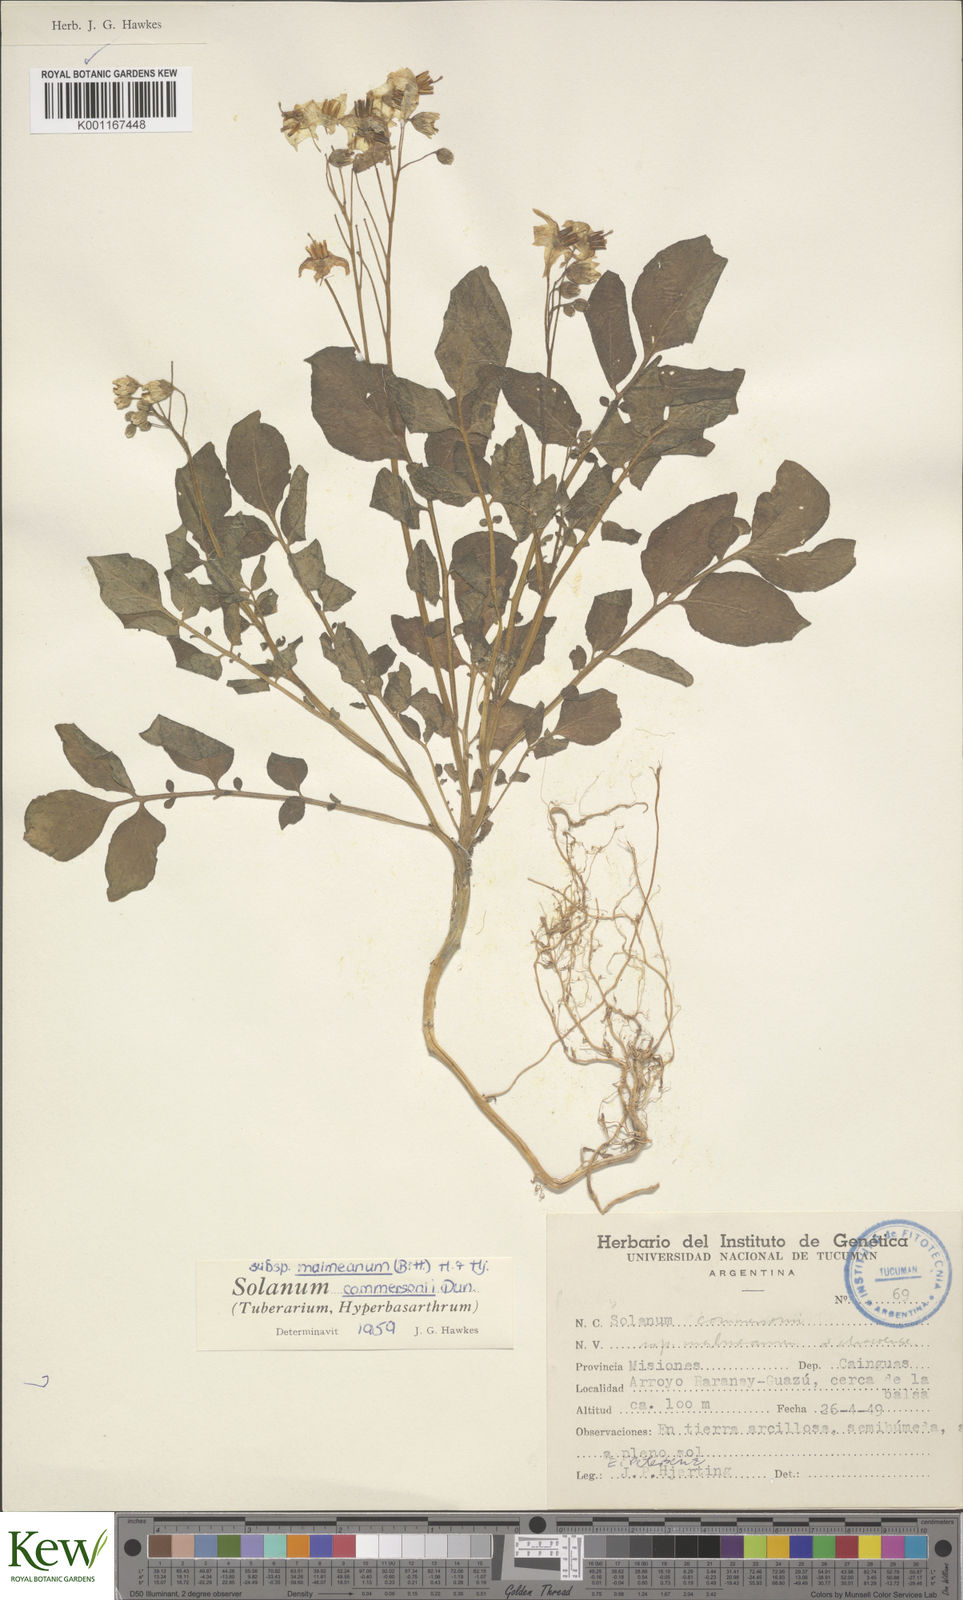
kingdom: Plantae
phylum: Tracheophyta
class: Magnoliopsida
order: Solanales
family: Solanaceae
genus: Solanum
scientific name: Solanum malmeanum
